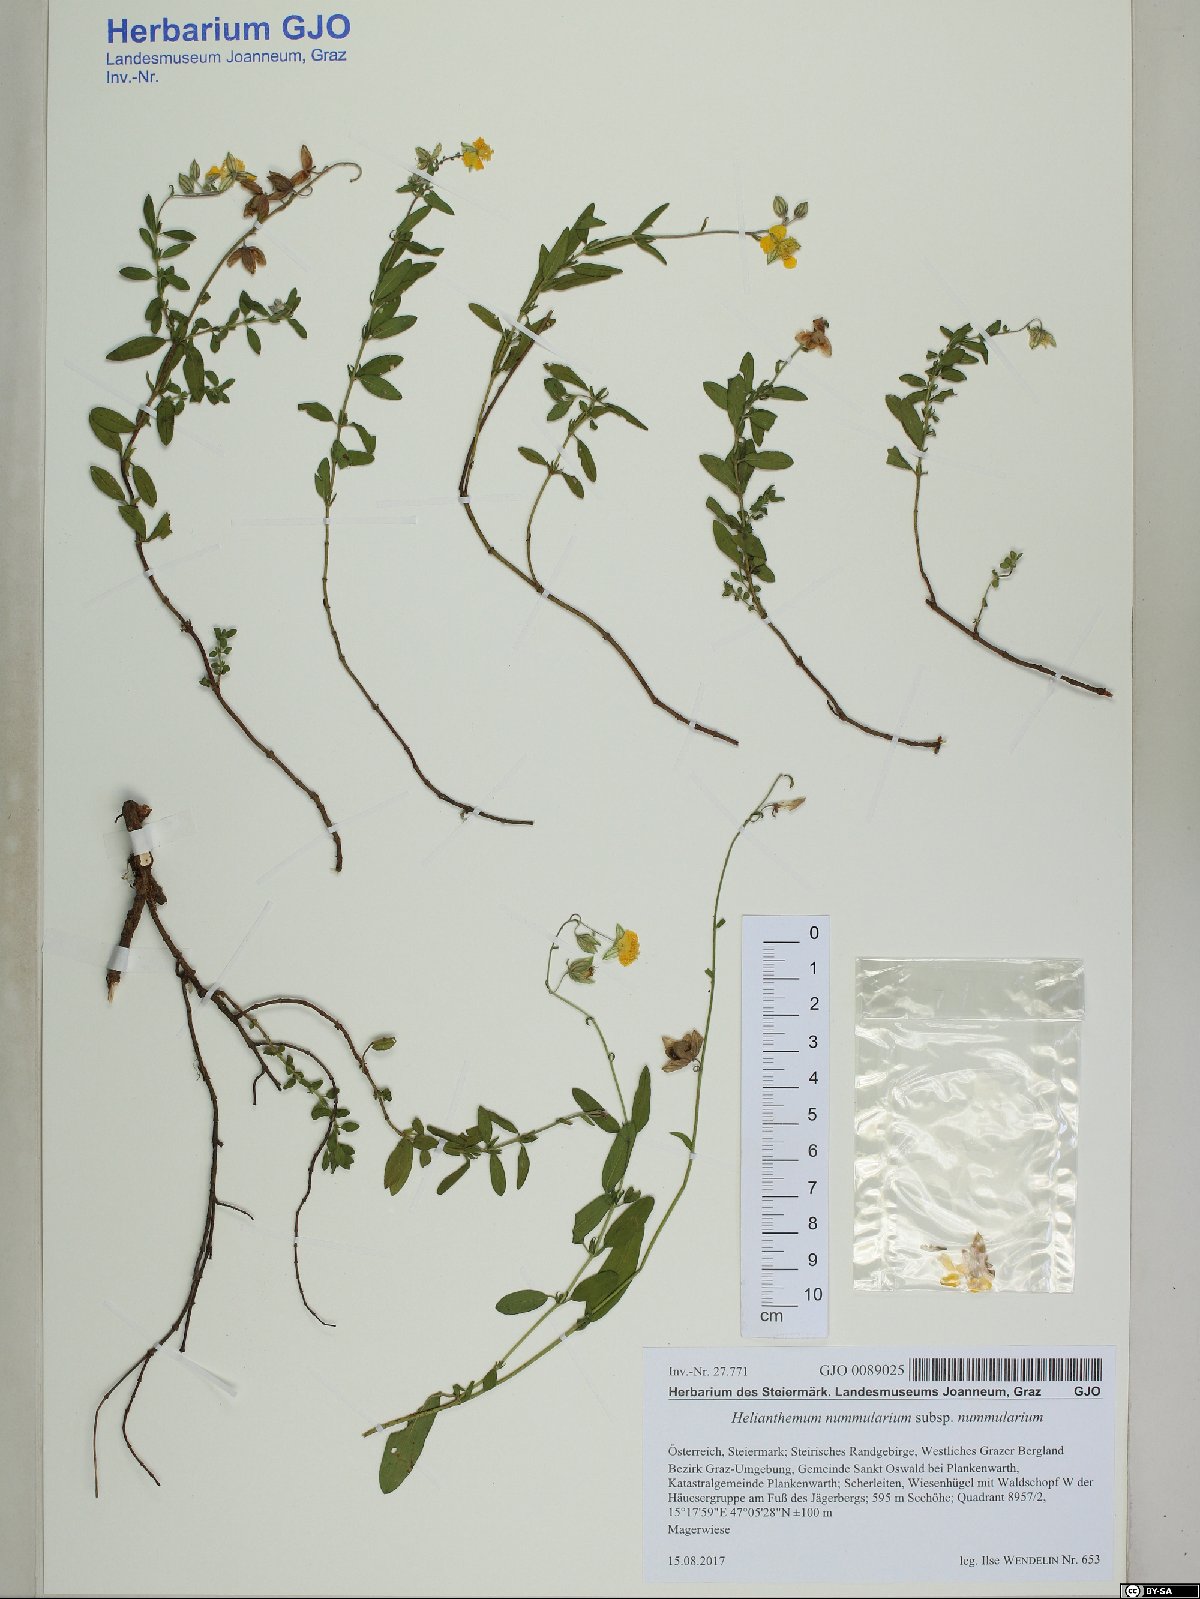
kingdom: Plantae
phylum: Tracheophyta
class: Magnoliopsida
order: Malvales
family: Cistaceae
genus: Helianthemum
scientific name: Helianthemum nummularium
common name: Common rock-rose
